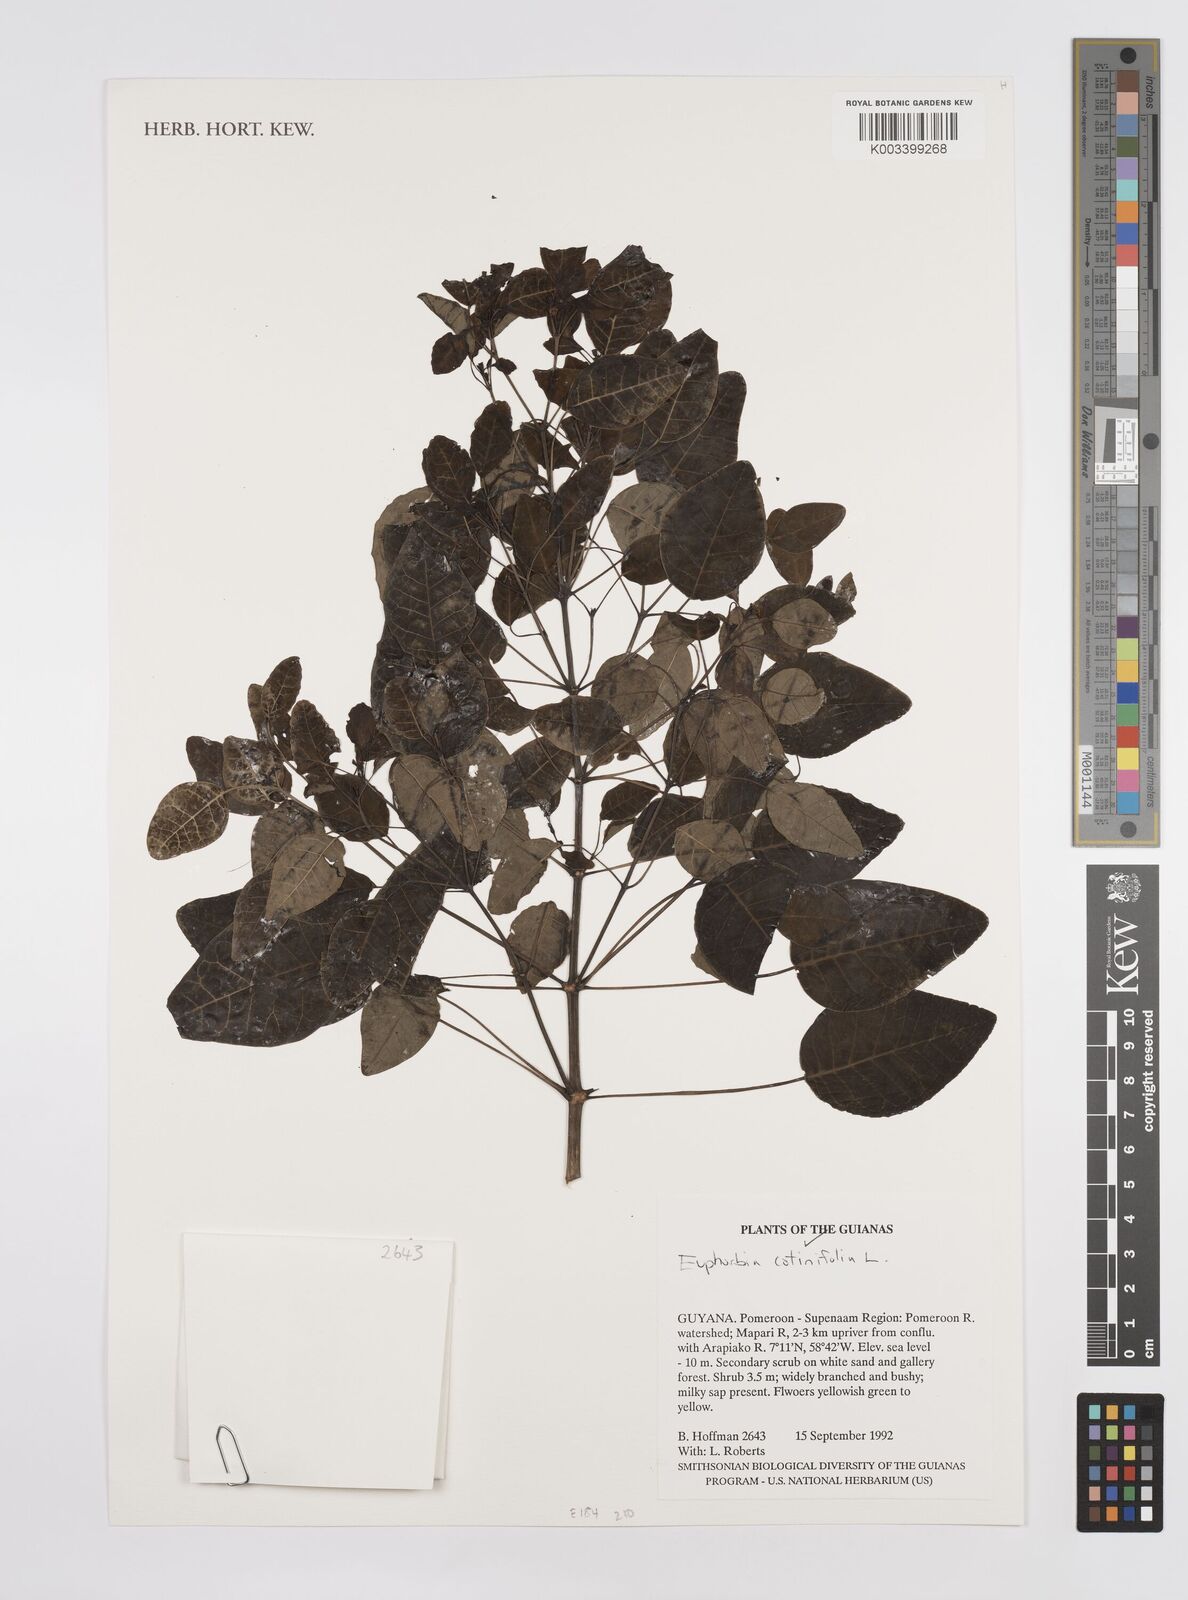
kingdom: Plantae
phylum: Tracheophyta
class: Magnoliopsida
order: Malpighiales
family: Euphorbiaceae
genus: Euphorbia
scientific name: Euphorbia cotinifolia
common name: Tropical smokebush
